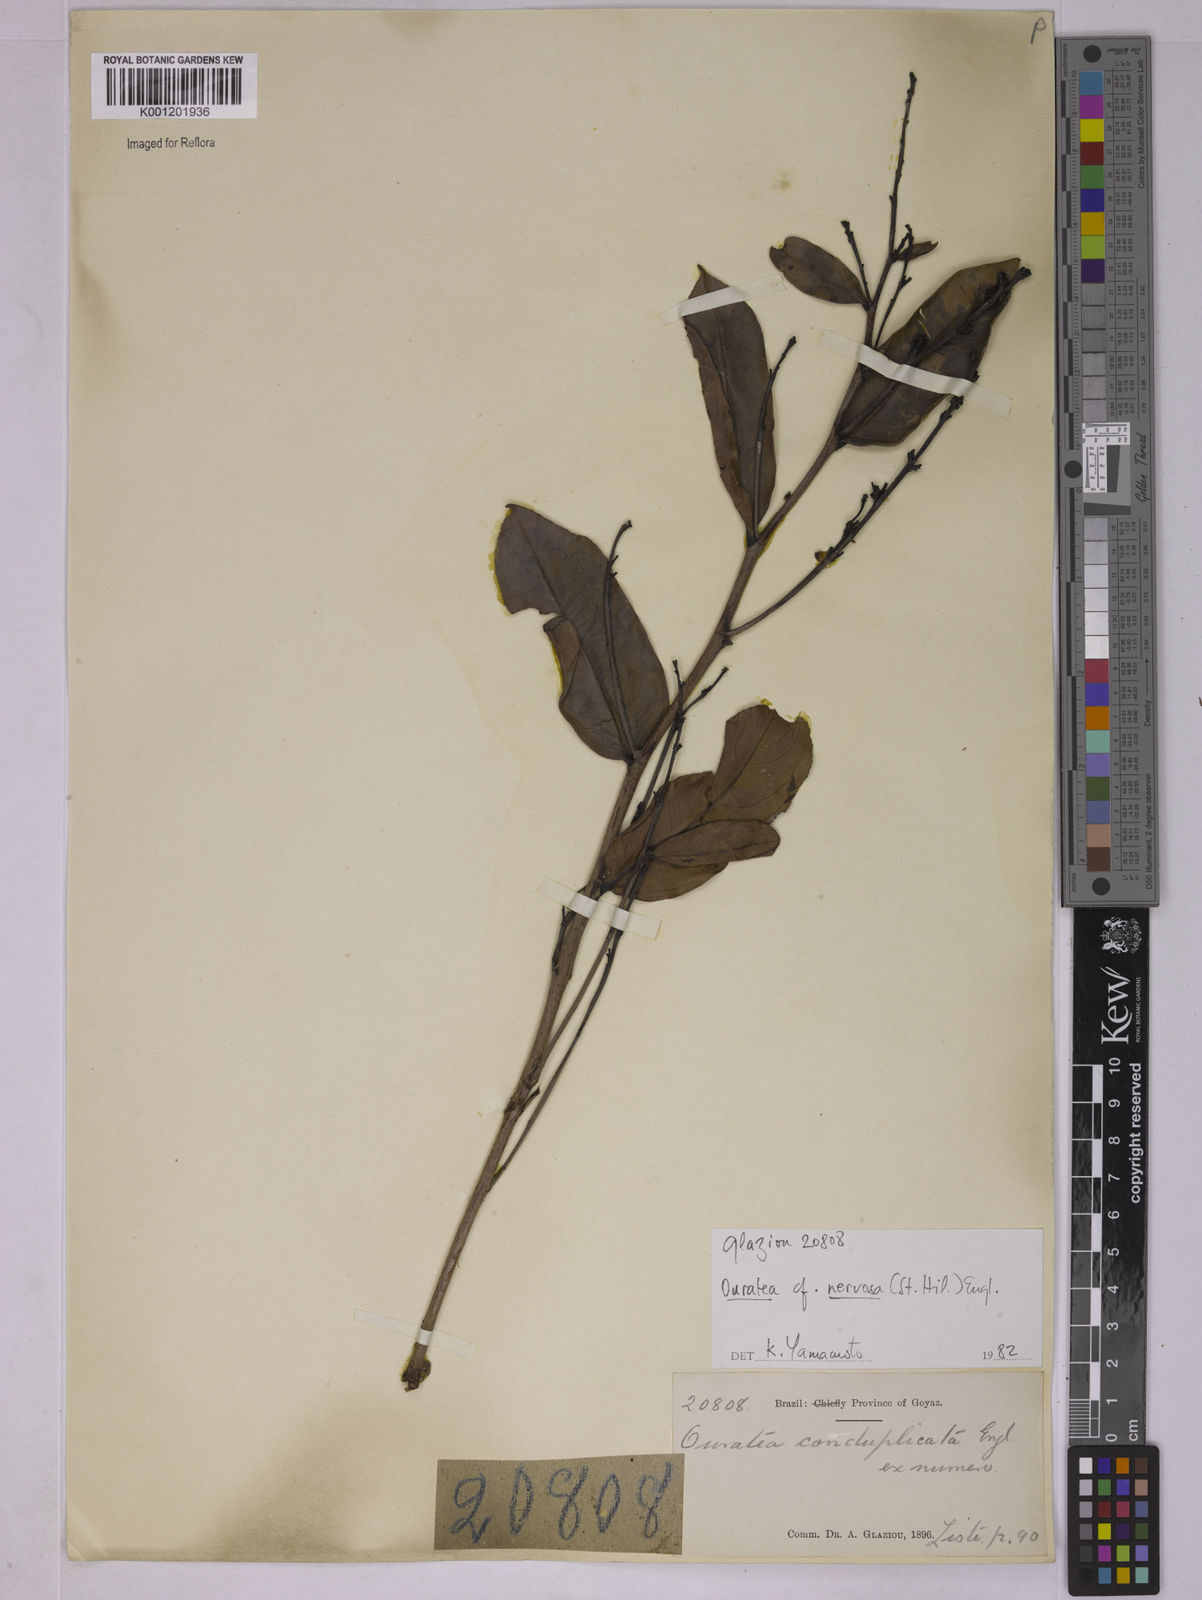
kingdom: Plantae
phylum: Tracheophyta
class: Magnoliopsida
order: Malpighiales
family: Ochnaceae
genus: Ouratea
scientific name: Ouratea nervosa
